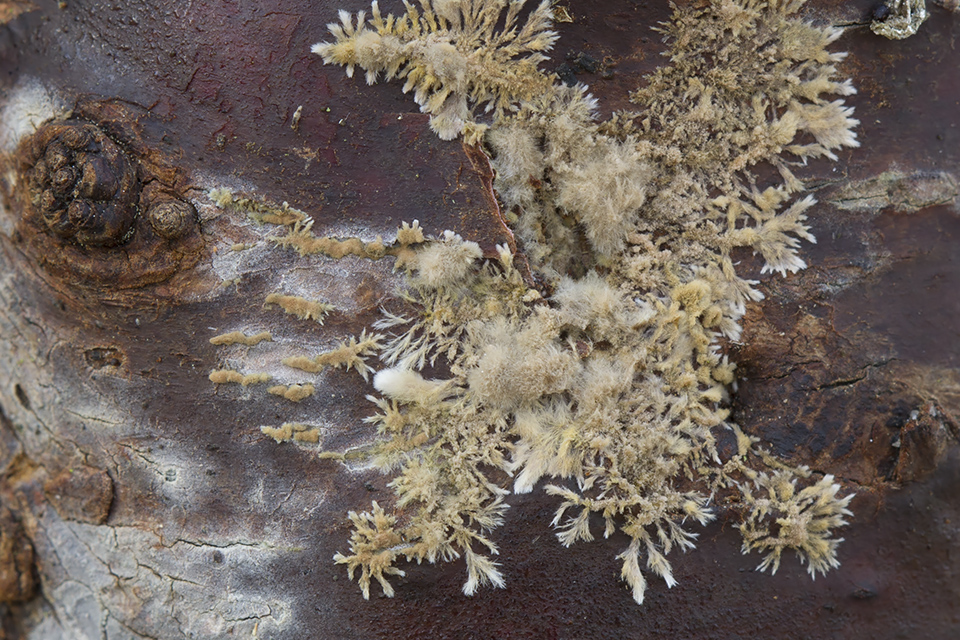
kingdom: Fungi
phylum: Ascomycota
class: Sordariomycetes
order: Xylariales
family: Hypoxylaceae
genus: Hypoxylon
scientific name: Hypoxylon howeanum
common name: halvkugleformet kulbær
